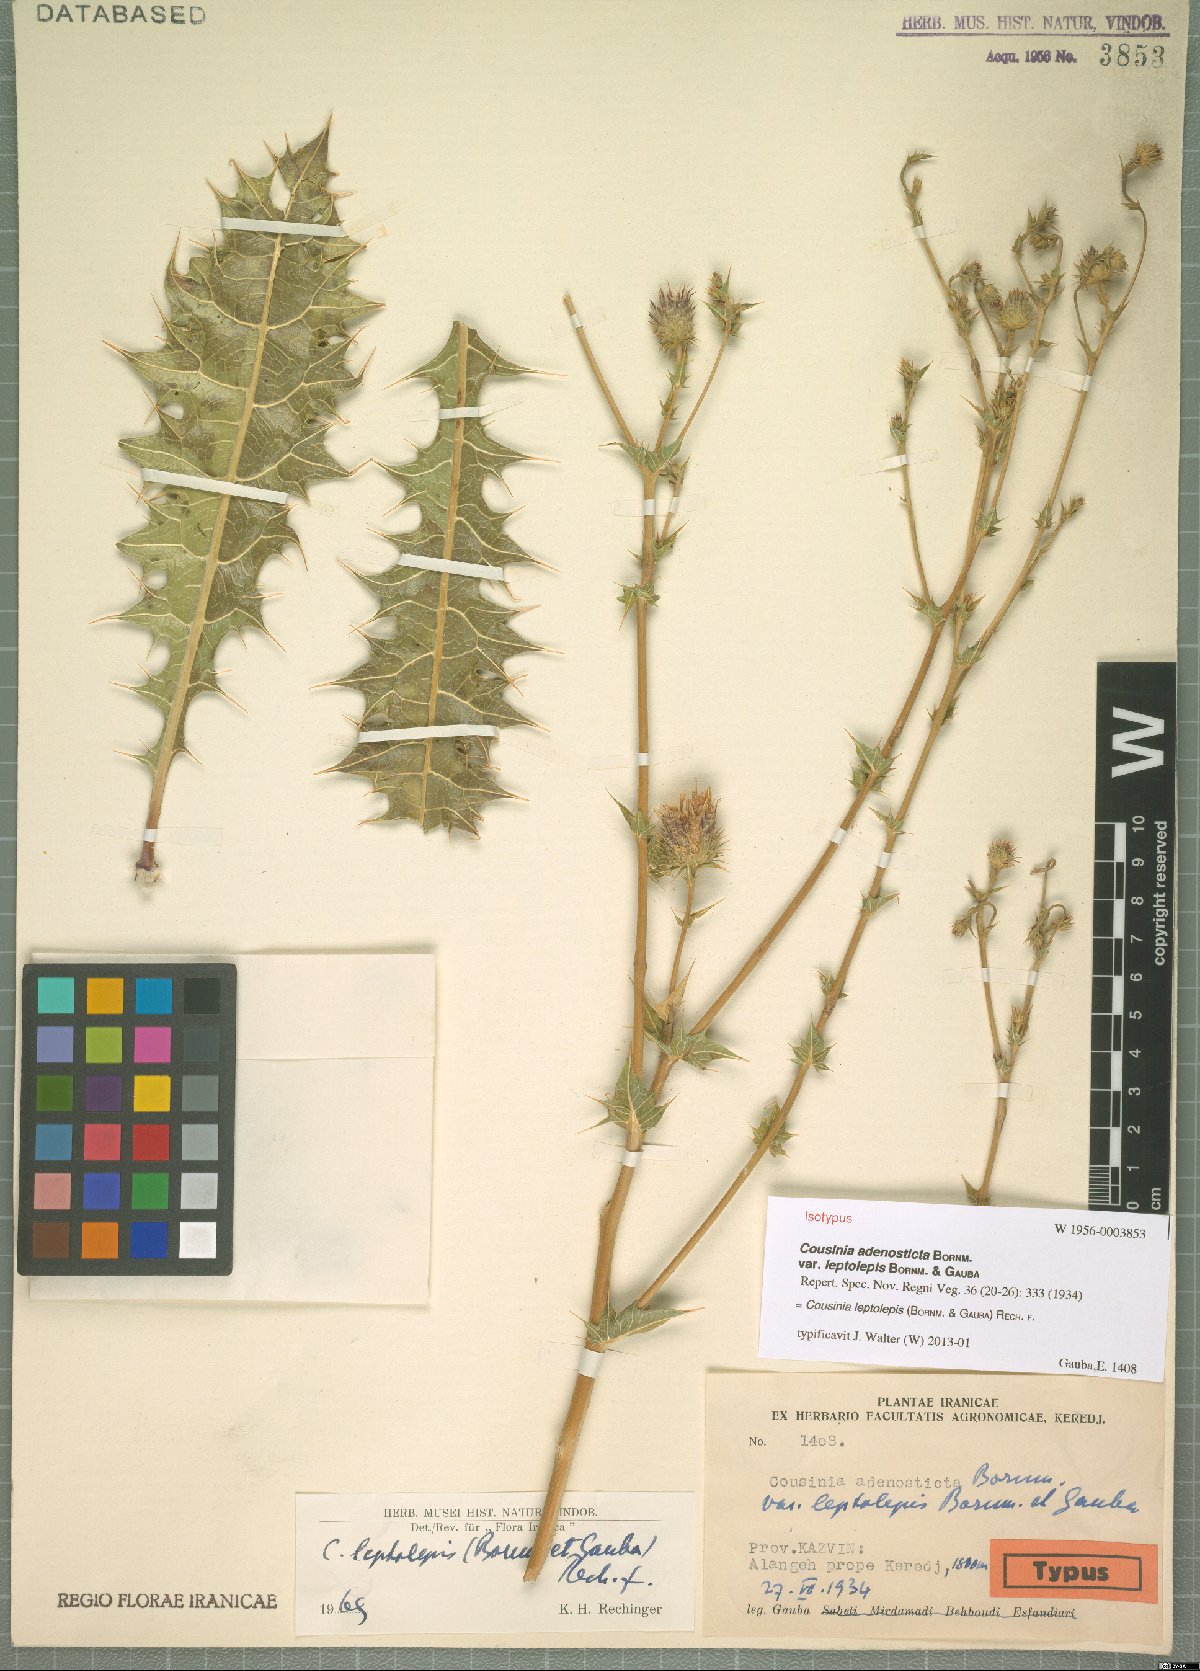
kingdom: Plantae
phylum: Tracheophyta
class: Magnoliopsida
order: Asterales
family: Asteraceae
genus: Cousinia
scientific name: Cousinia leptolepis
